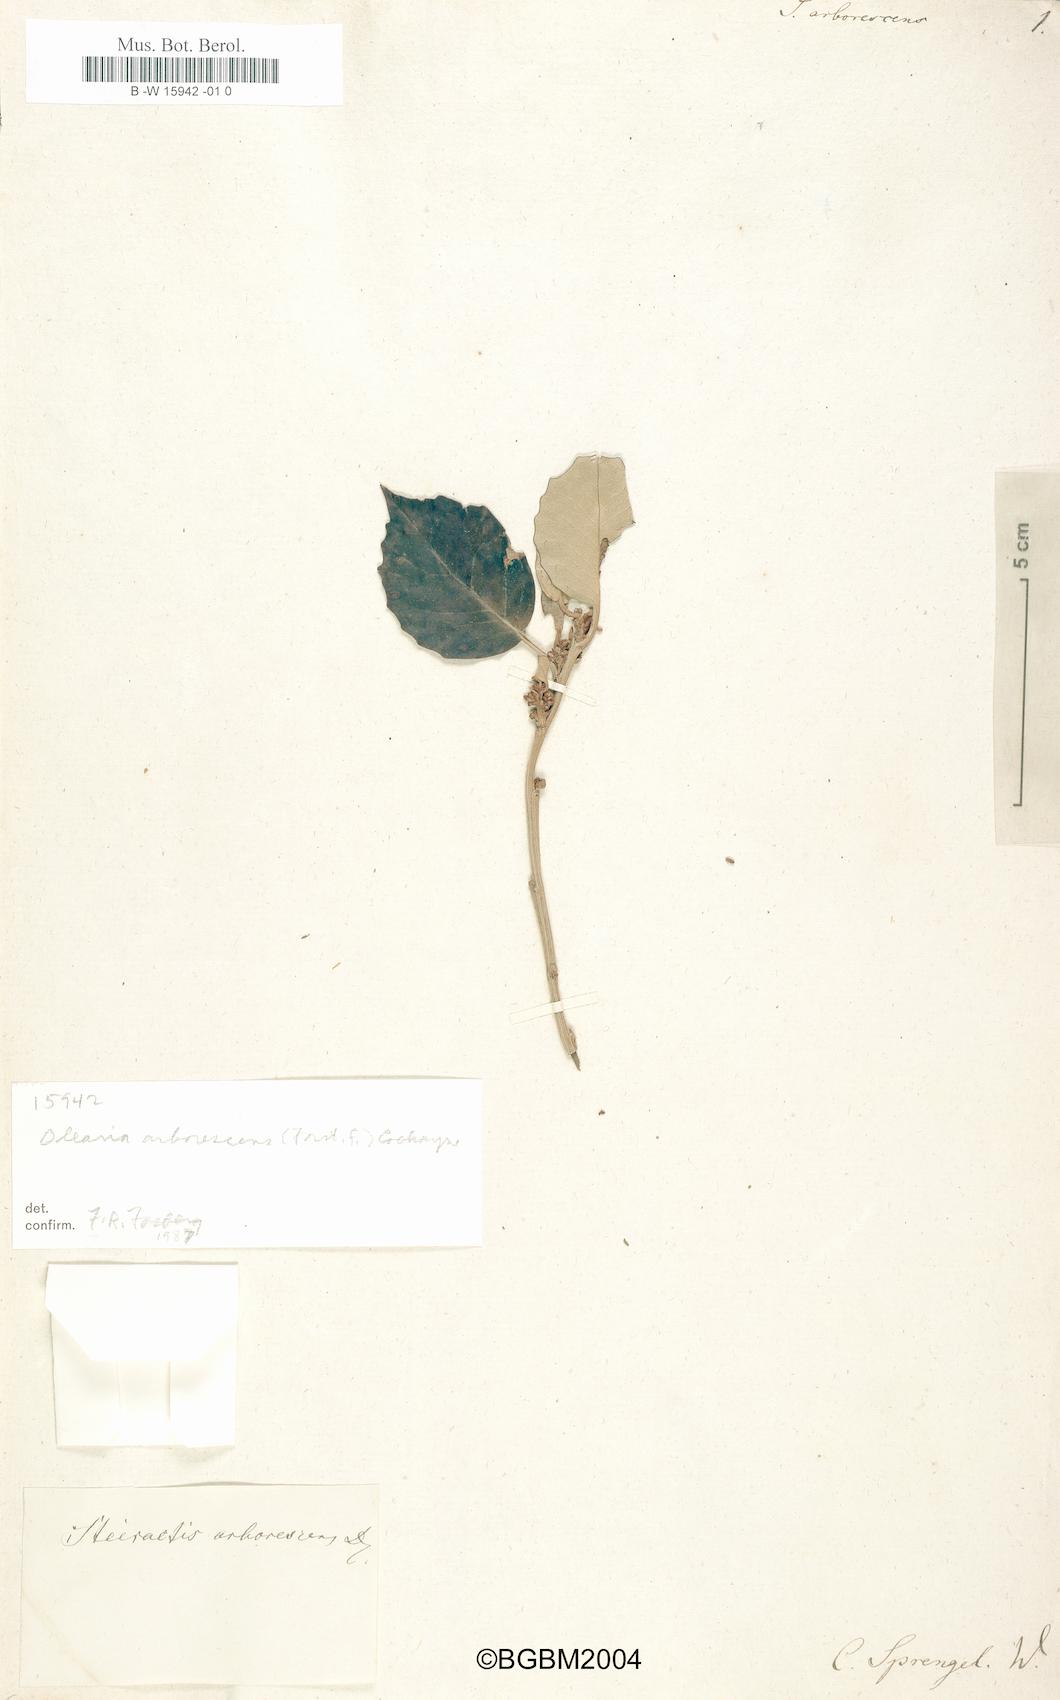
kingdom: Plantae
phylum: Tracheophyta
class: Magnoliopsida
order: Asterales
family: Asteraceae
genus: Olearia
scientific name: Olearia arborescens
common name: Glossy tree daisy
